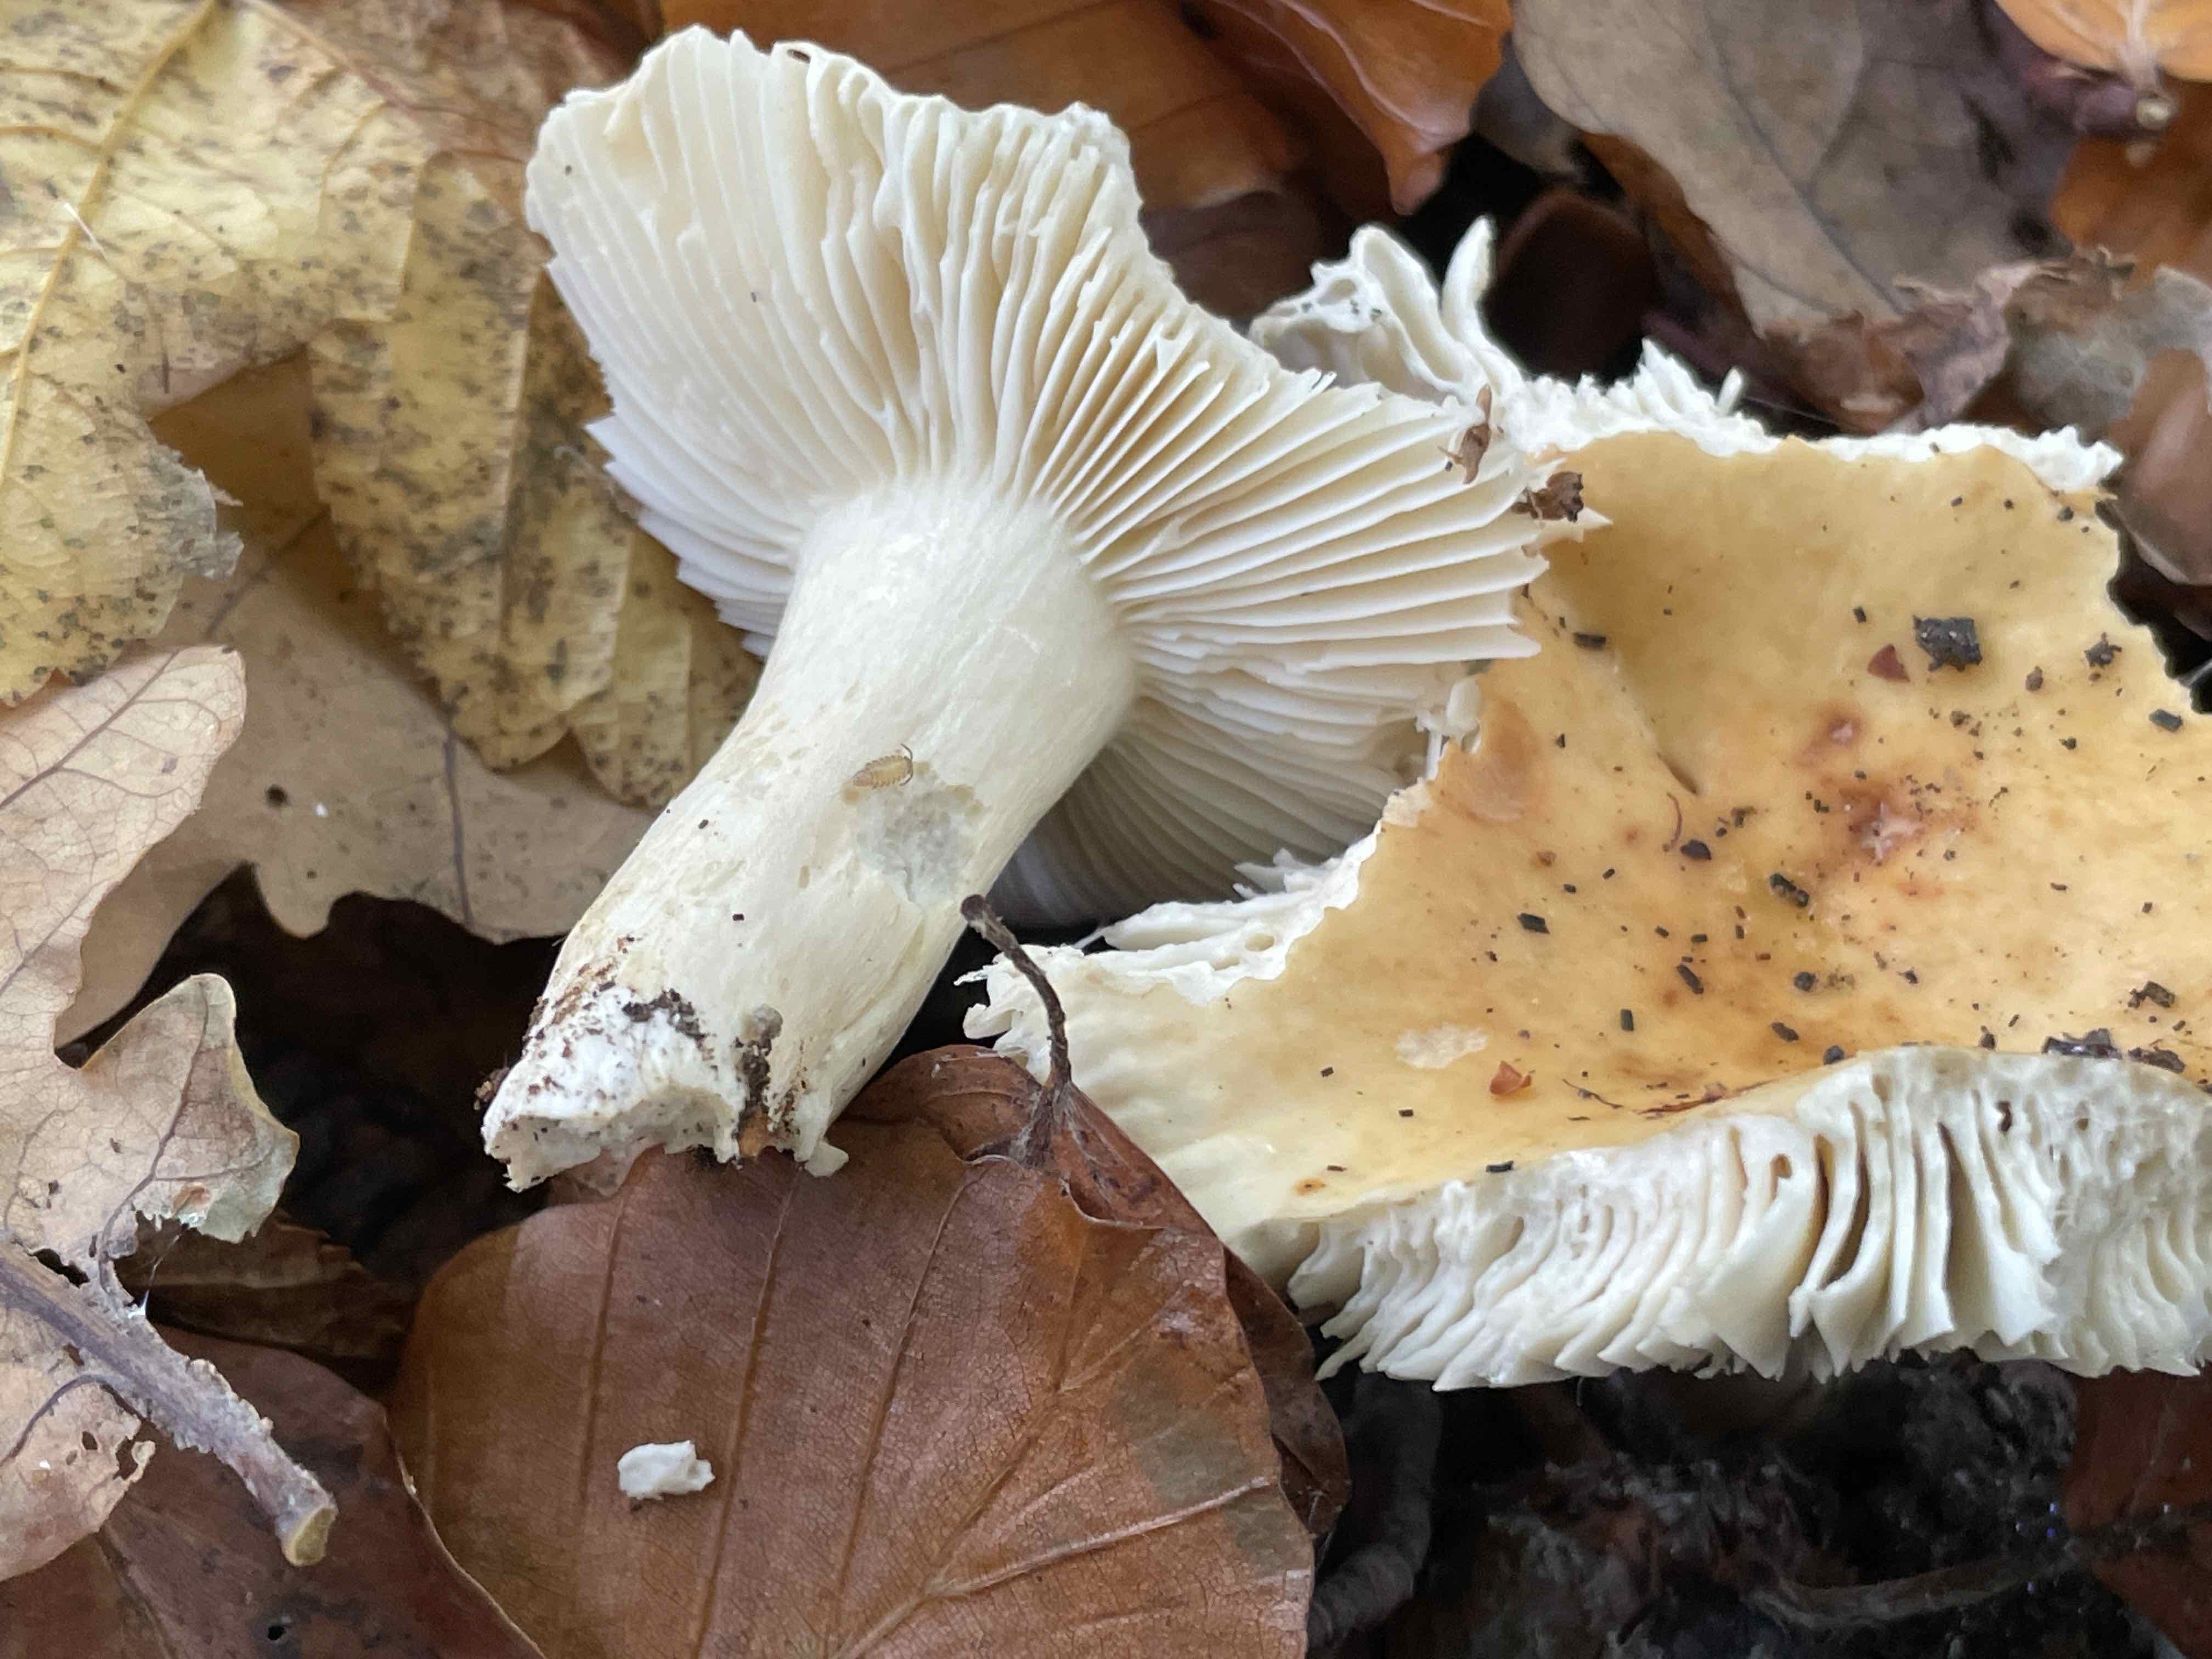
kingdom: Fungi
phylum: Basidiomycota
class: Agaricomycetes
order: Russulales
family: Russulaceae
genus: Russula
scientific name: Russula fellea
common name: galde-skørhat
